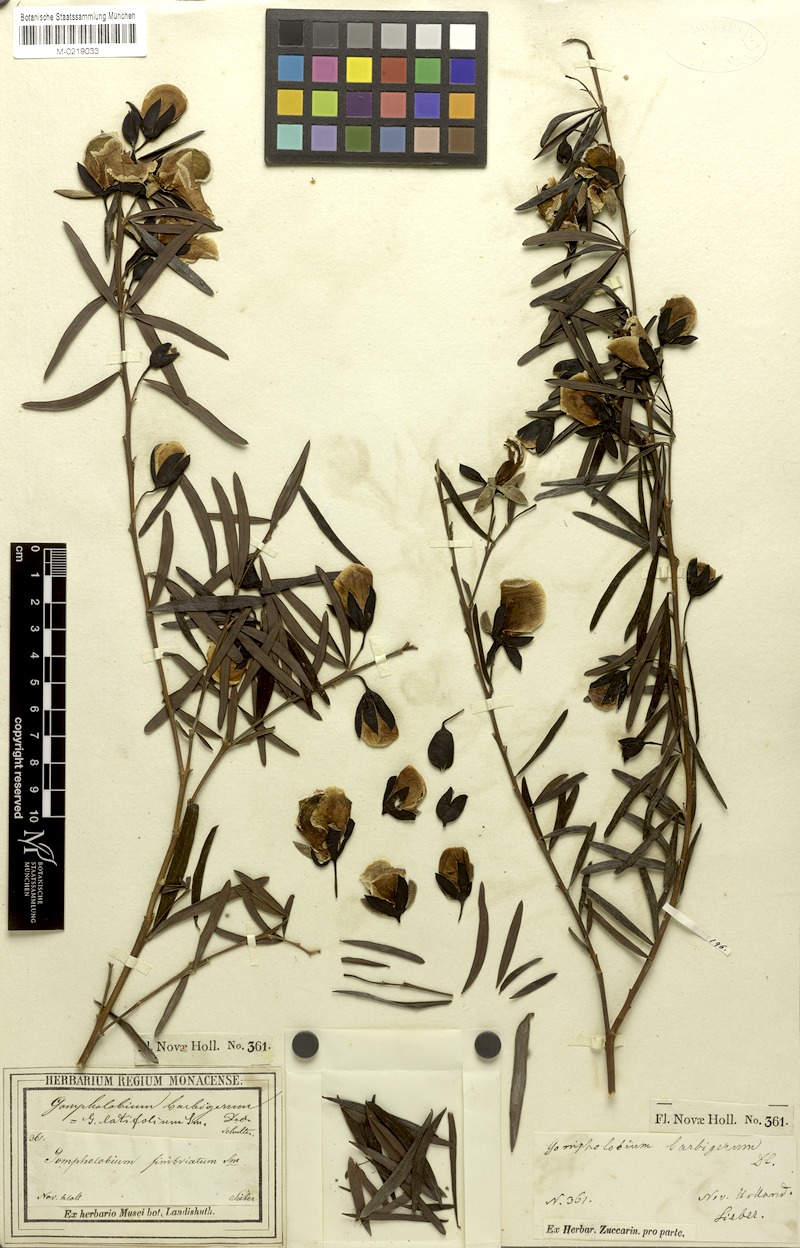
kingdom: Plantae
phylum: Tracheophyta
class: Magnoliopsida
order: Fabales
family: Fabaceae
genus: Gompholobium
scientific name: Gompholobium latifolium
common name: Broadleaf wedge-pea
